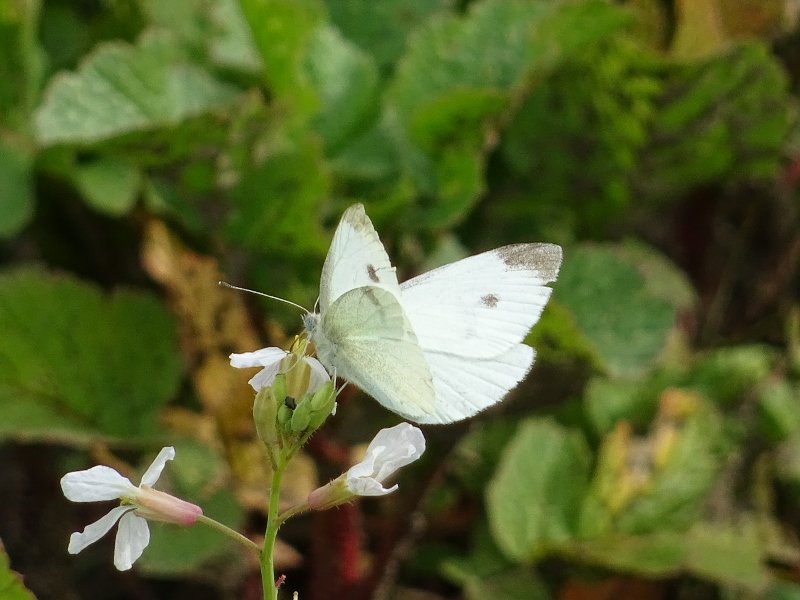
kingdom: Animalia
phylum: Arthropoda
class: Insecta
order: Lepidoptera
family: Pieridae
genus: Pieris
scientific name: Pieris rapae
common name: Cabbage White
